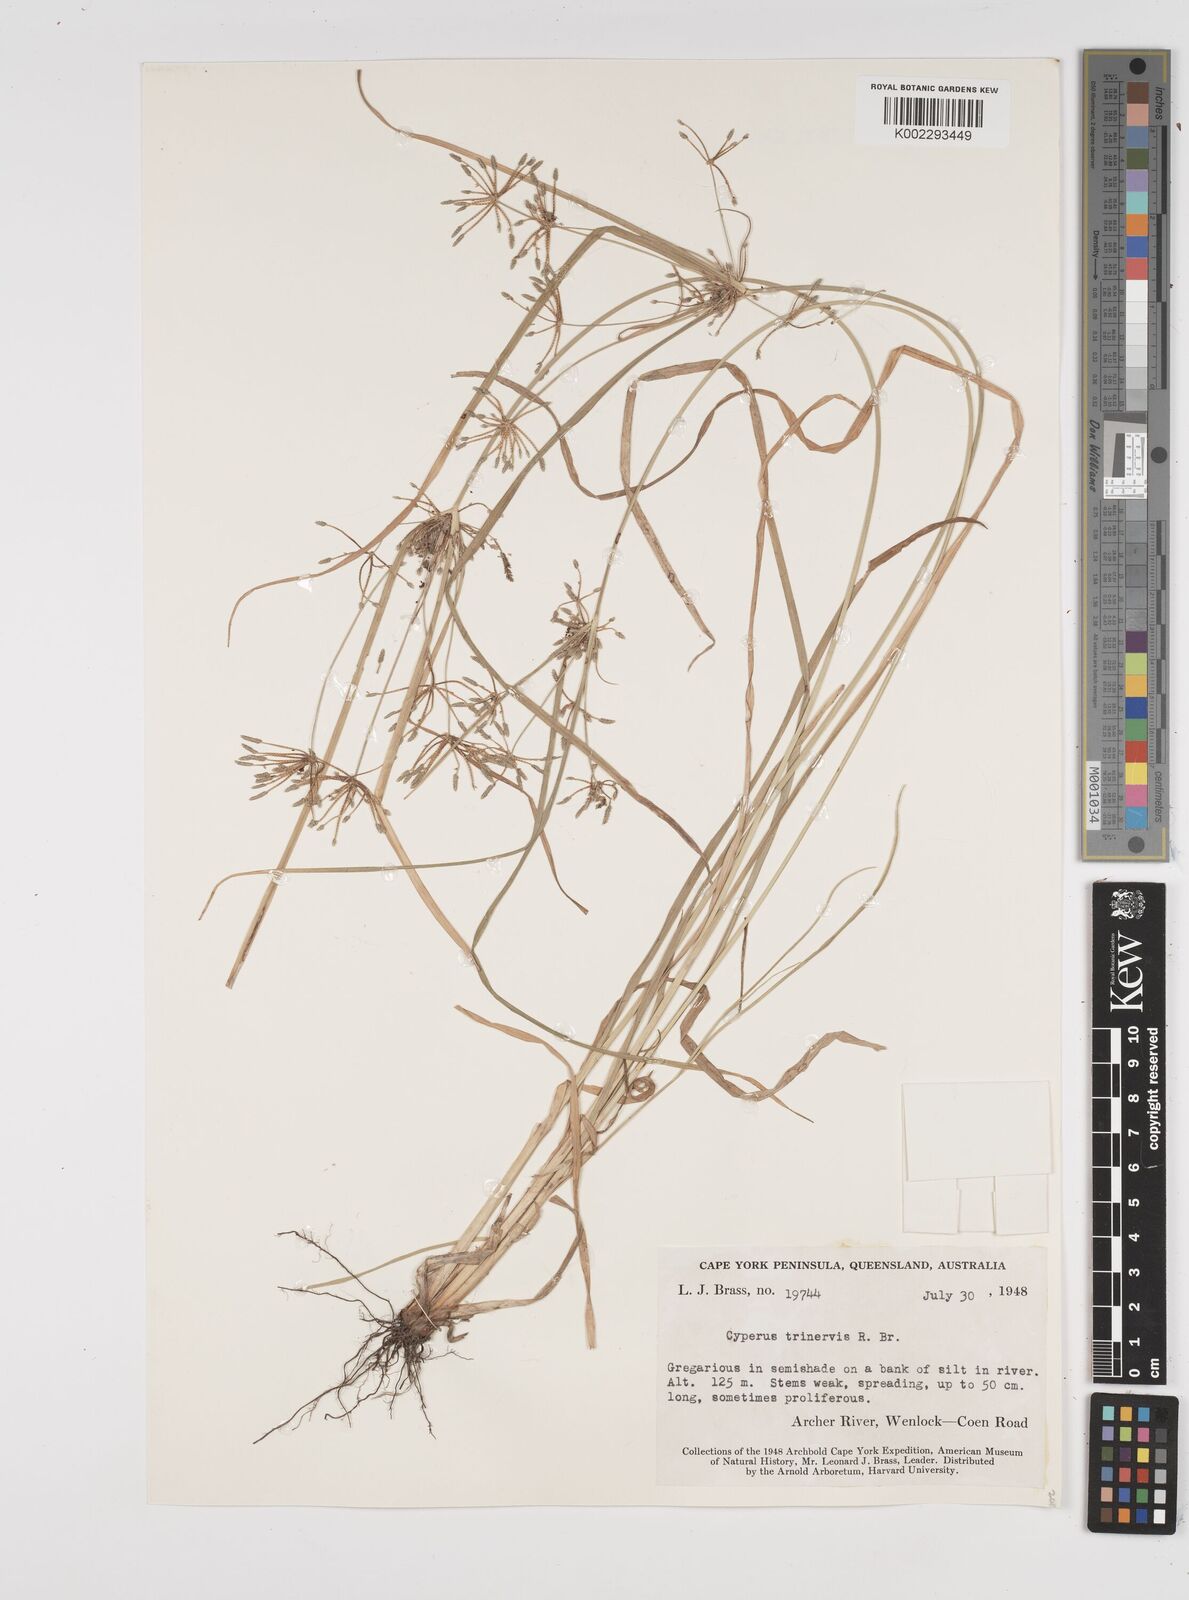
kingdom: Plantae
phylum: Tracheophyta
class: Liliopsida
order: Poales
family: Cyperaceae
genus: Cyperus
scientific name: Cyperus trinervis
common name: Australian flatsedge
